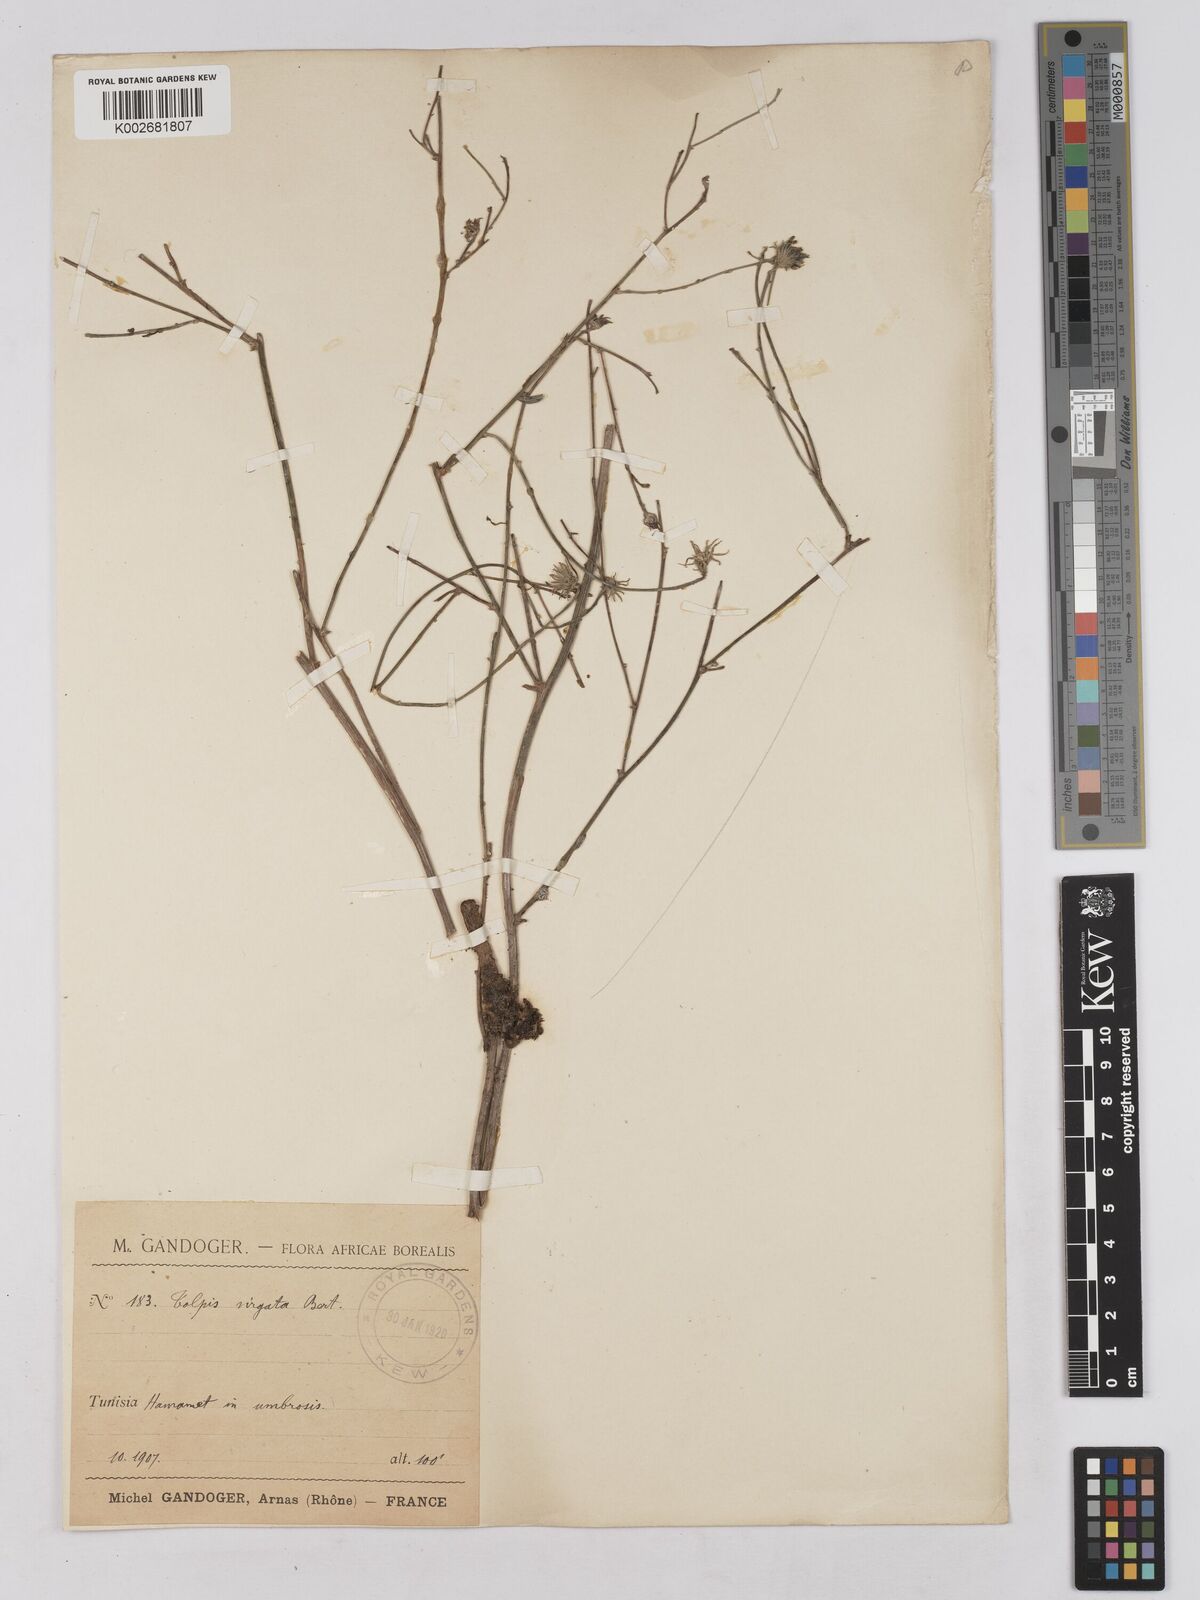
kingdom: Plantae
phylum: Tracheophyta
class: Magnoliopsida
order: Asterales
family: Asteraceae
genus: Tolpis
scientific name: Tolpis virgata
